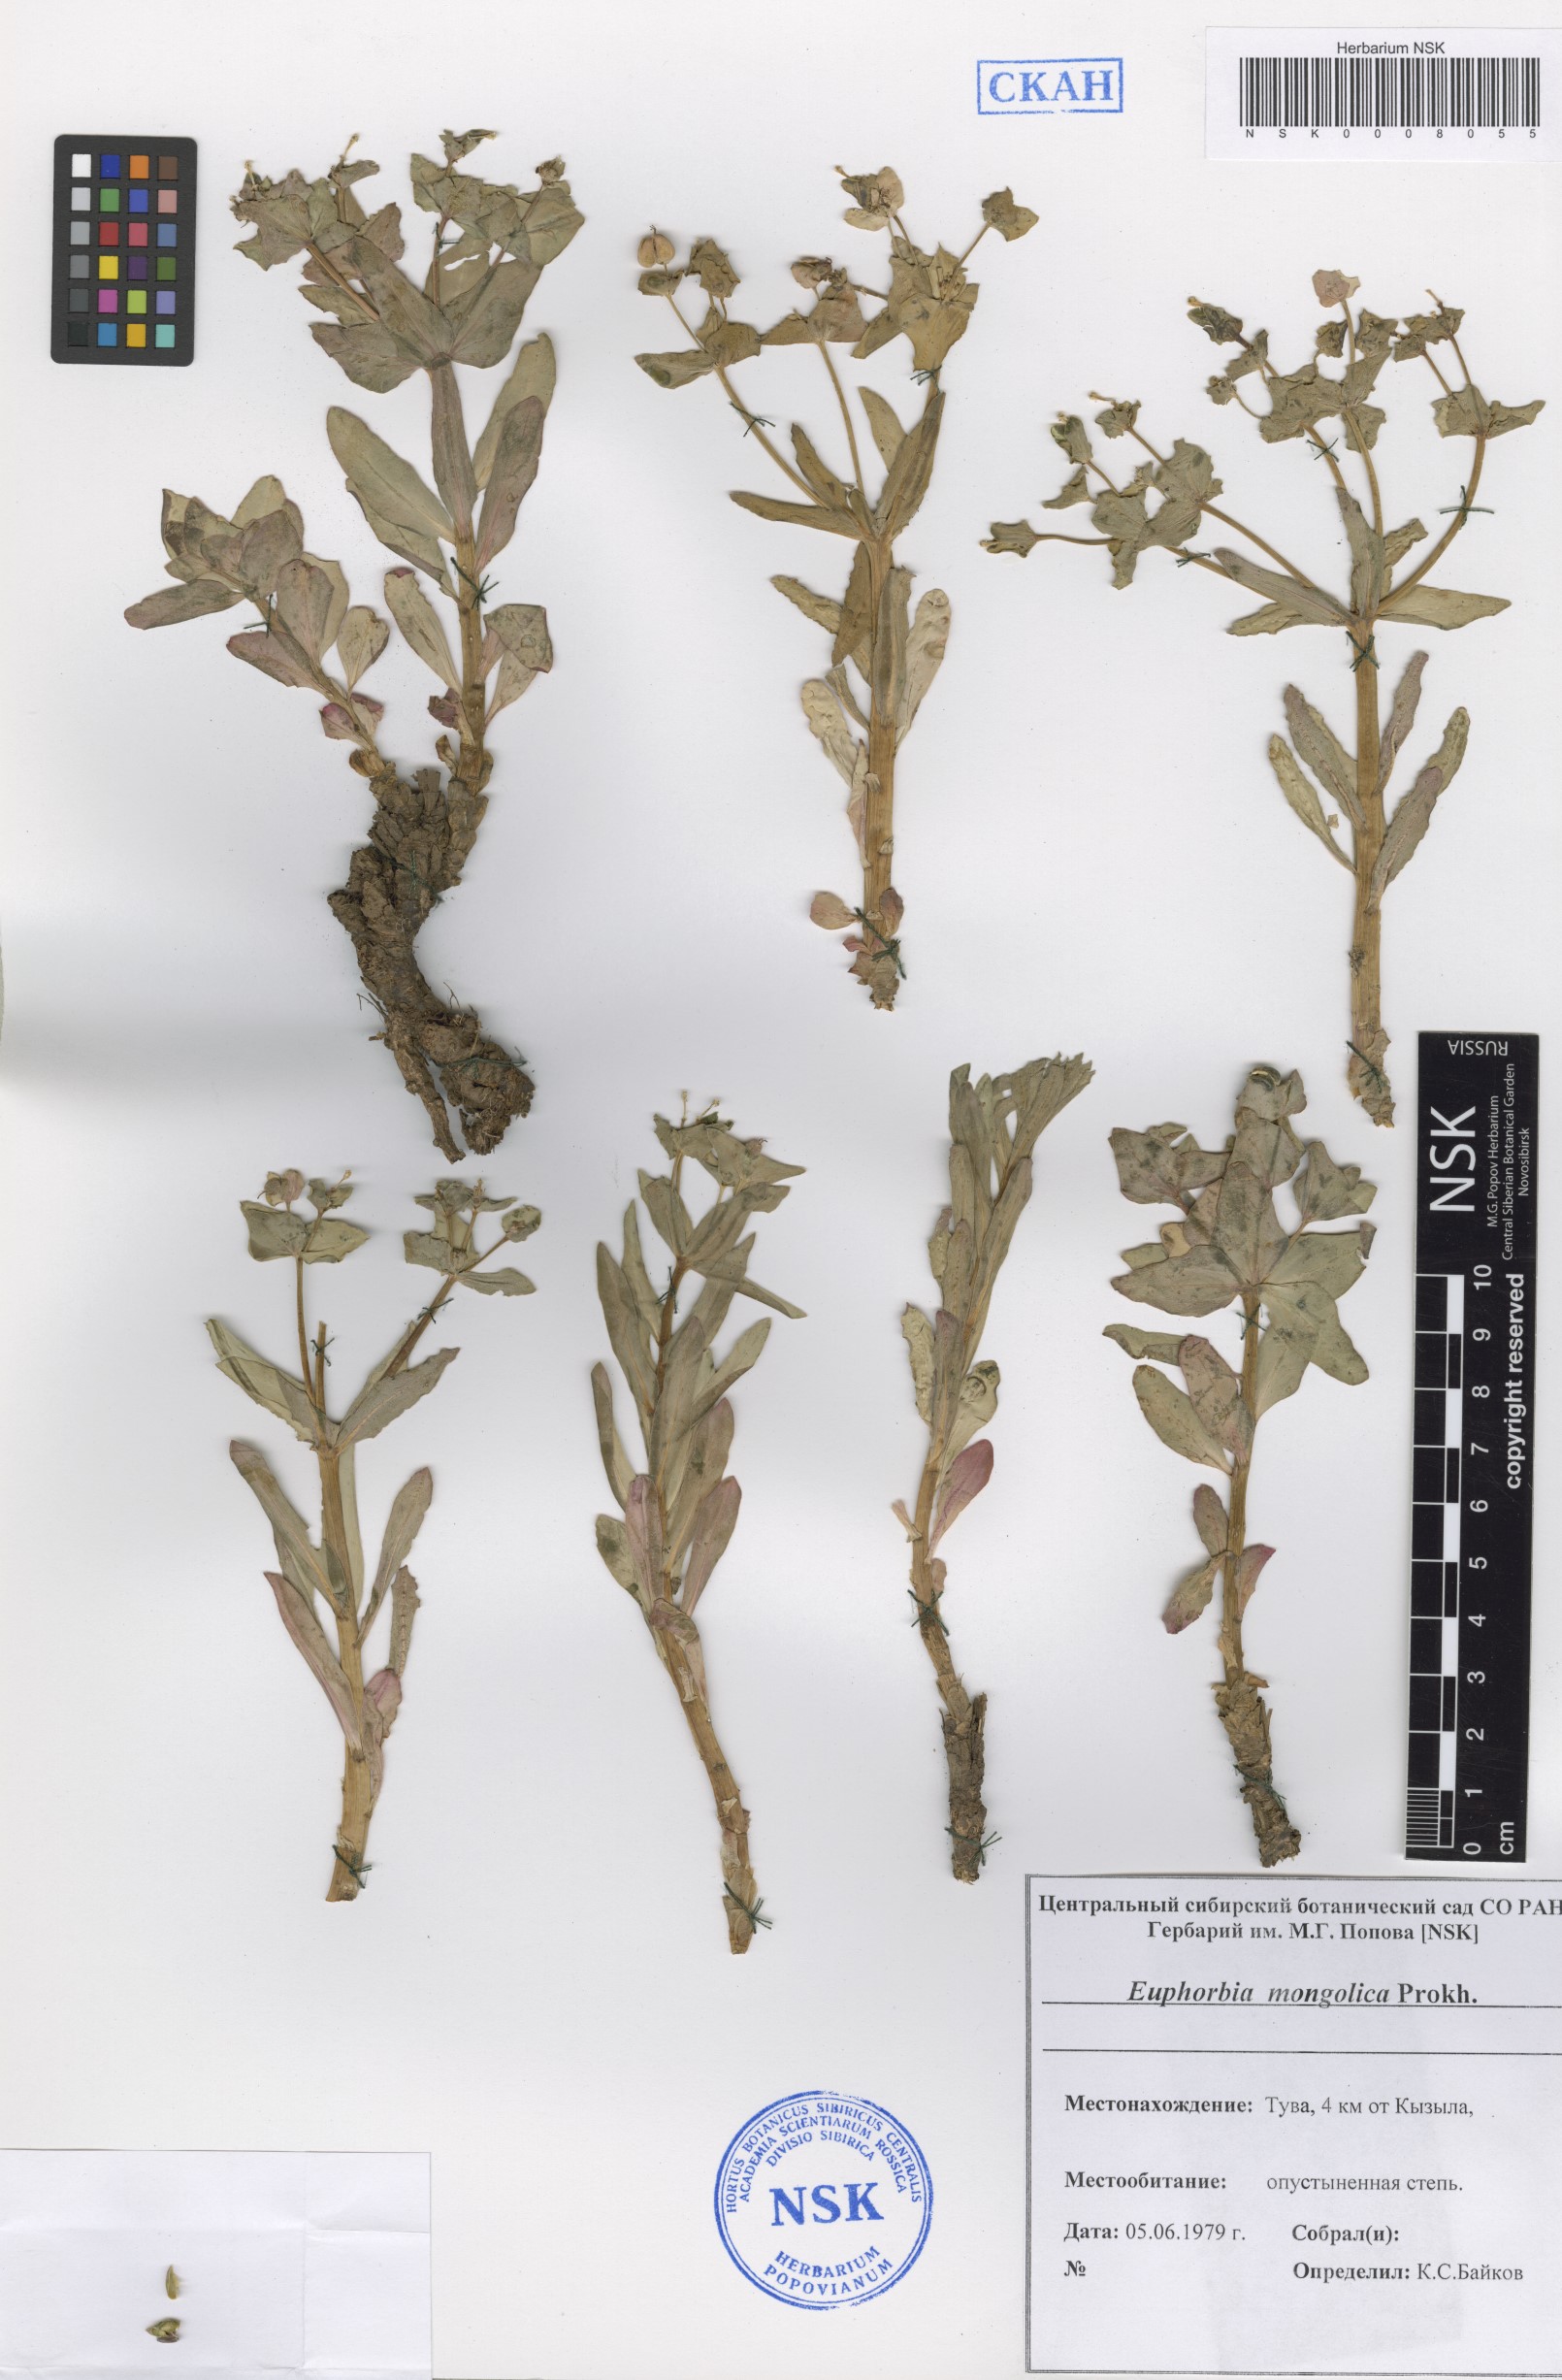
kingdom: Plantae
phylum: Tracheophyta
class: Magnoliopsida
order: Malpighiales
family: Euphorbiaceae
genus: Euphorbia
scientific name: Euphorbia mongolica
